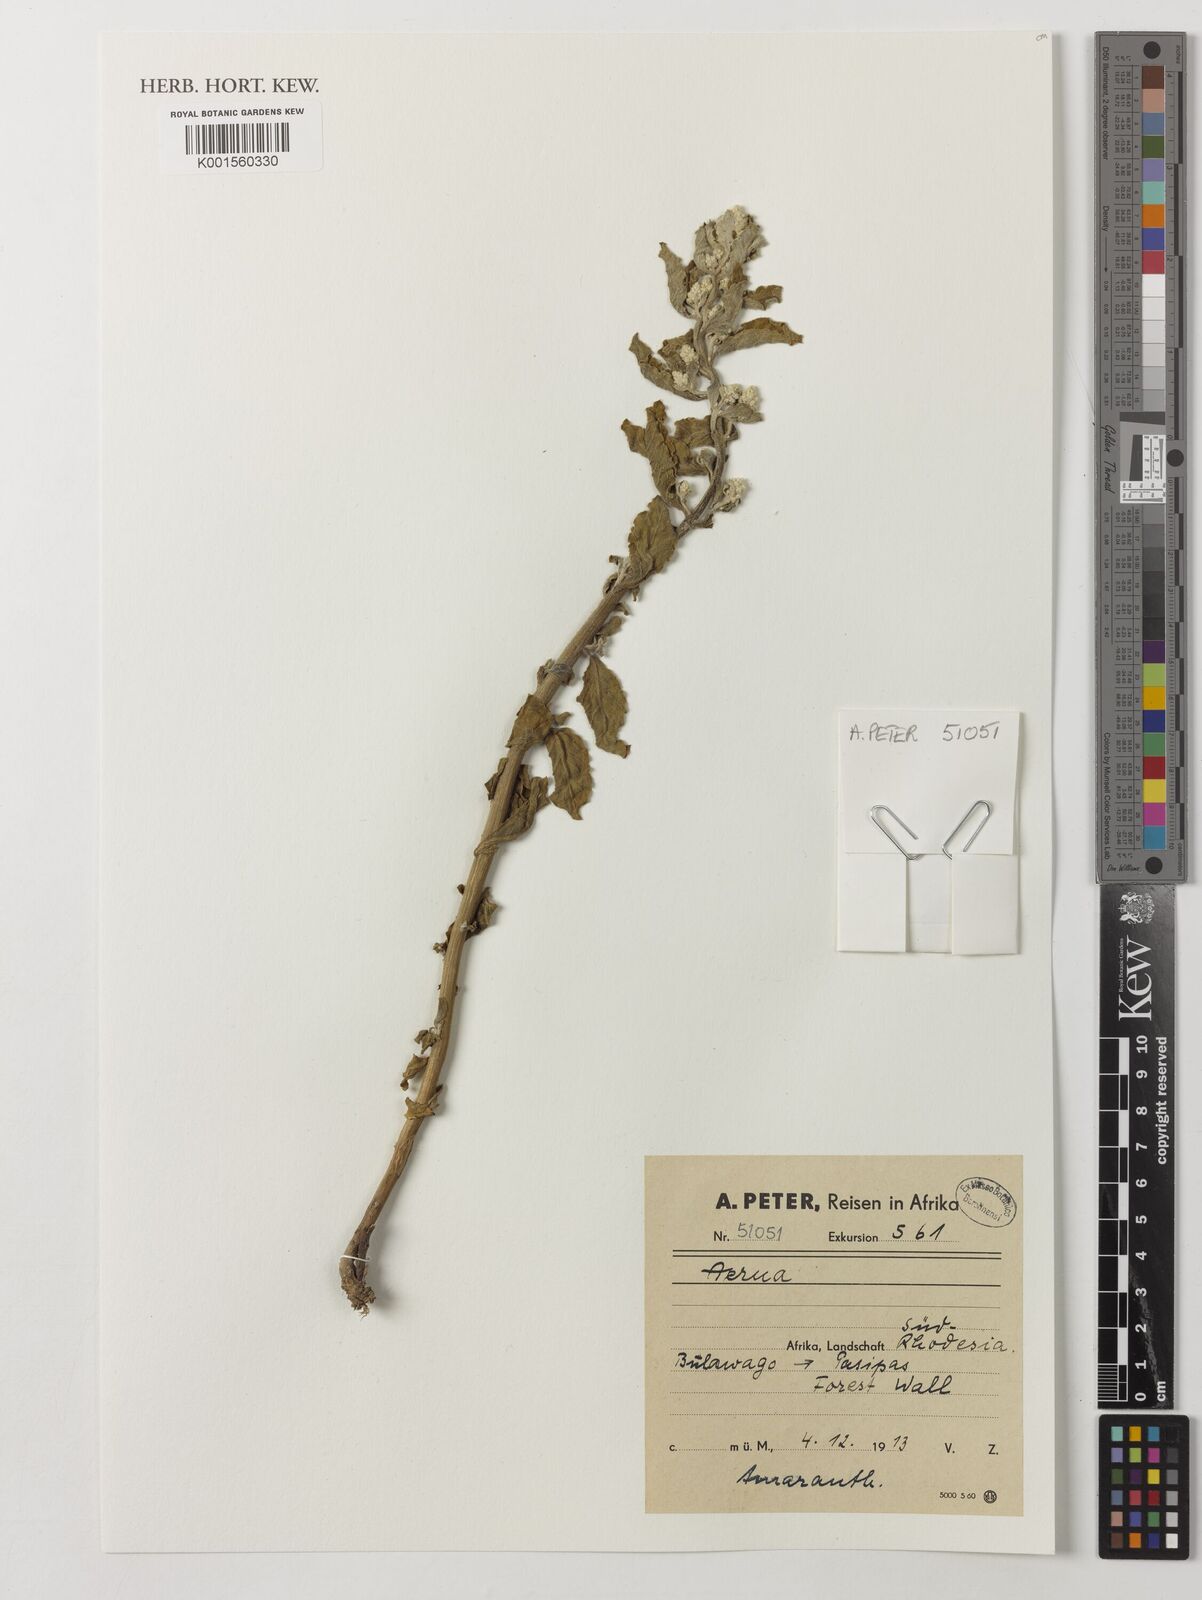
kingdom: Plantae
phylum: Tracheophyta
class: Magnoliopsida
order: Caryophyllales
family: Amaranthaceae
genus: Aerva
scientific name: Aerva
